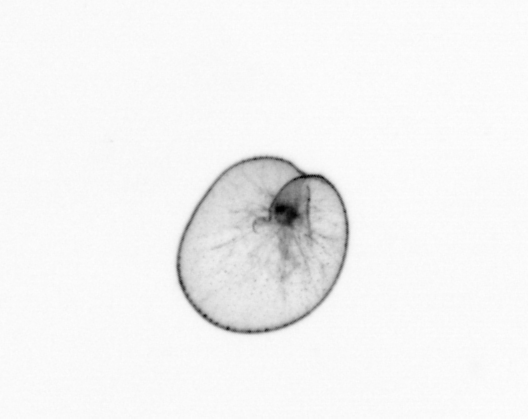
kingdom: Chromista
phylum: Myzozoa
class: Dinophyceae
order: Noctilucales
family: Noctilucaceae
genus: Noctiluca
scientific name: Noctiluca scintillans
